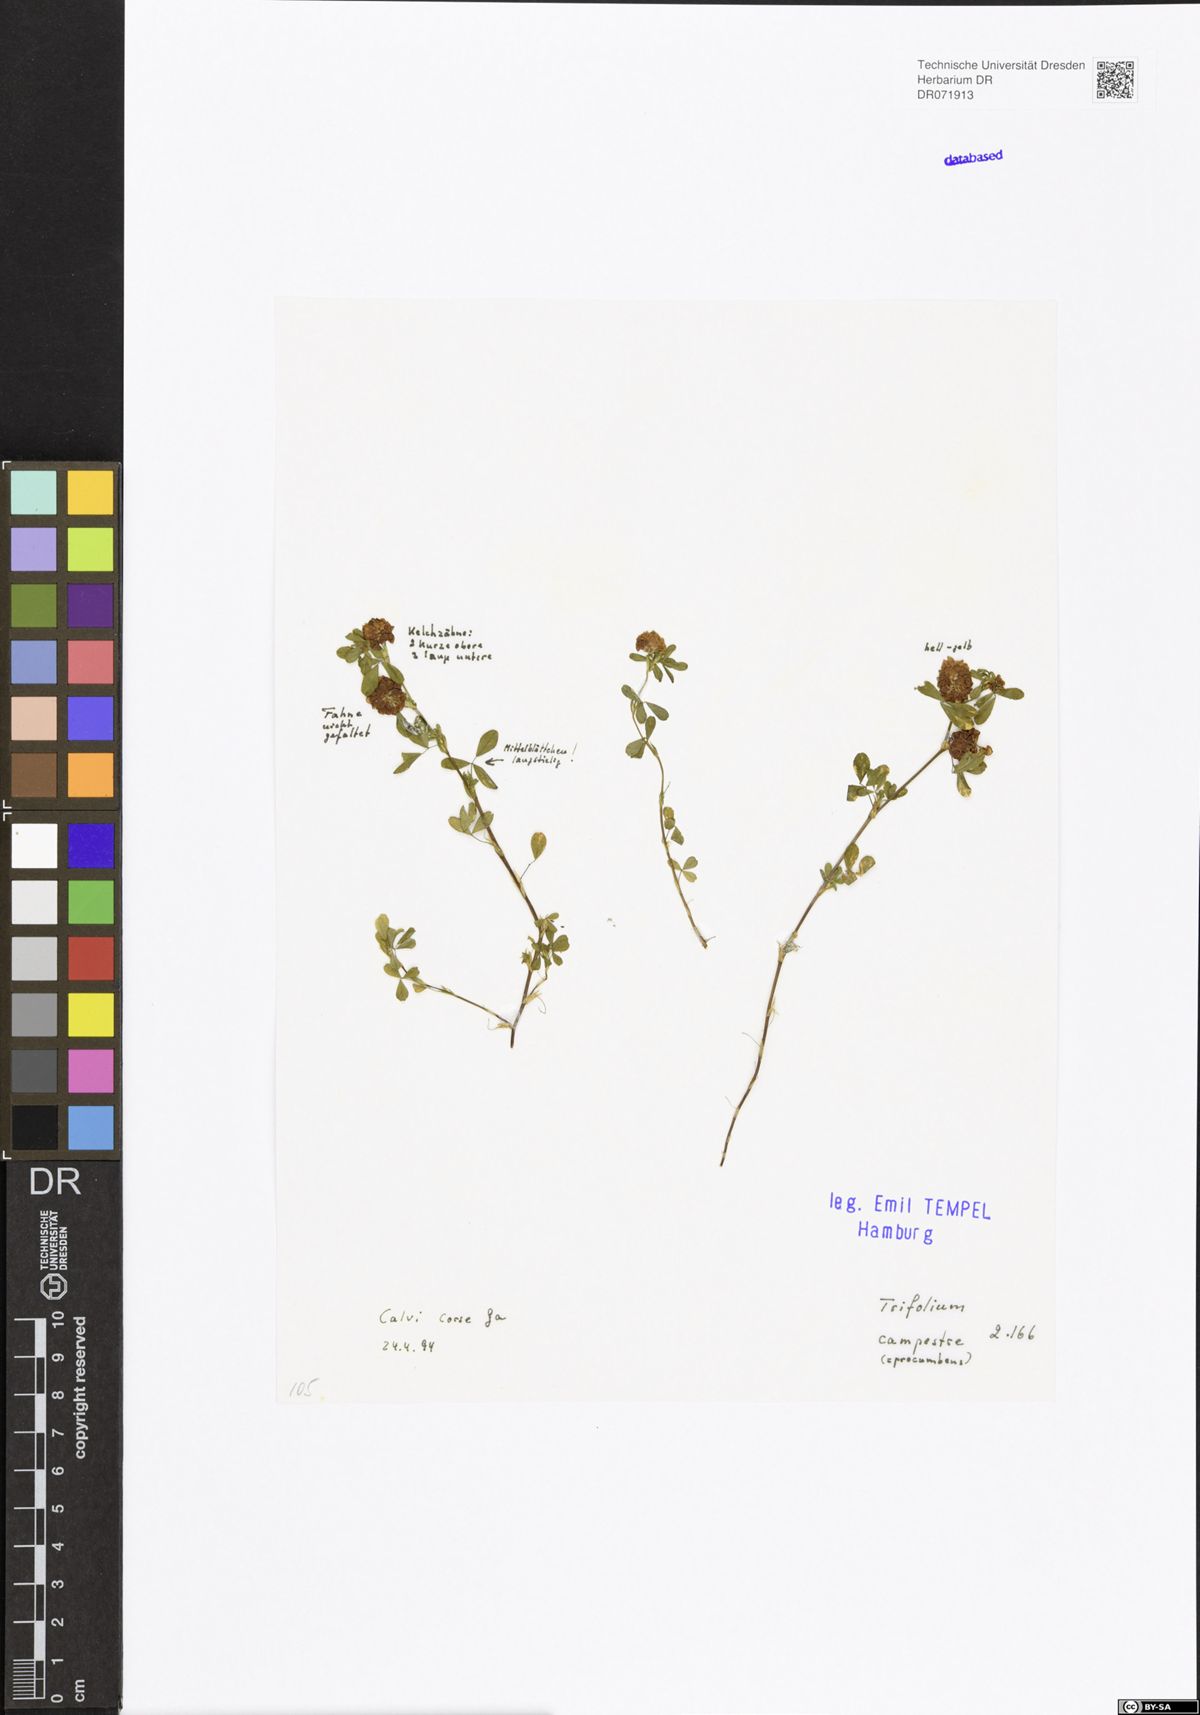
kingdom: Plantae
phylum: Tracheophyta
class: Magnoliopsida
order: Fabales
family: Fabaceae
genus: Trifolium
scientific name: Trifolium campestre
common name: Field clover
